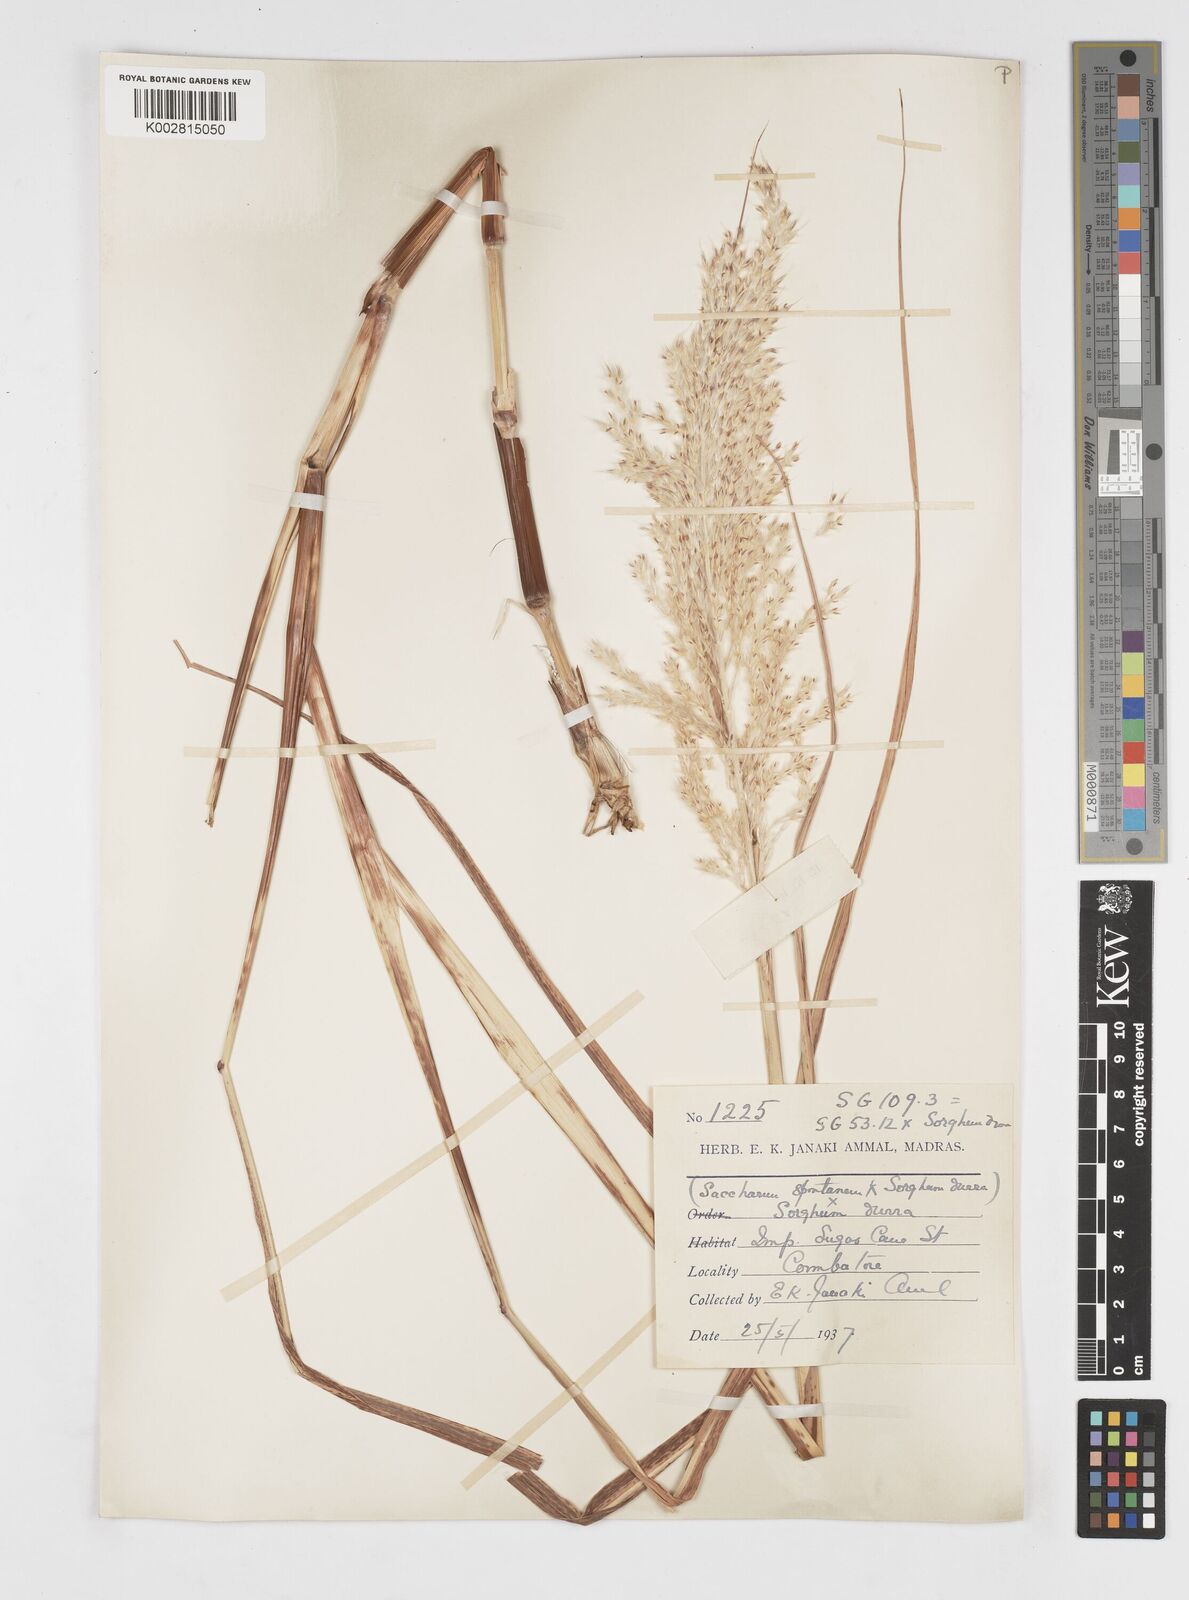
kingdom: Plantae
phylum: Tracheophyta
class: Liliopsida
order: Poales
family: Poaceae
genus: Saccharum
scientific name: Saccharum
